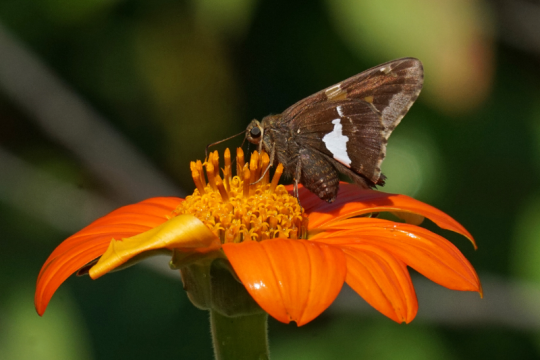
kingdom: Animalia
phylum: Arthropoda
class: Insecta
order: Lepidoptera
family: Hesperiidae
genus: Epargyreus
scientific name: Epargyreus clarus
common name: Silver-spotted Skipper
